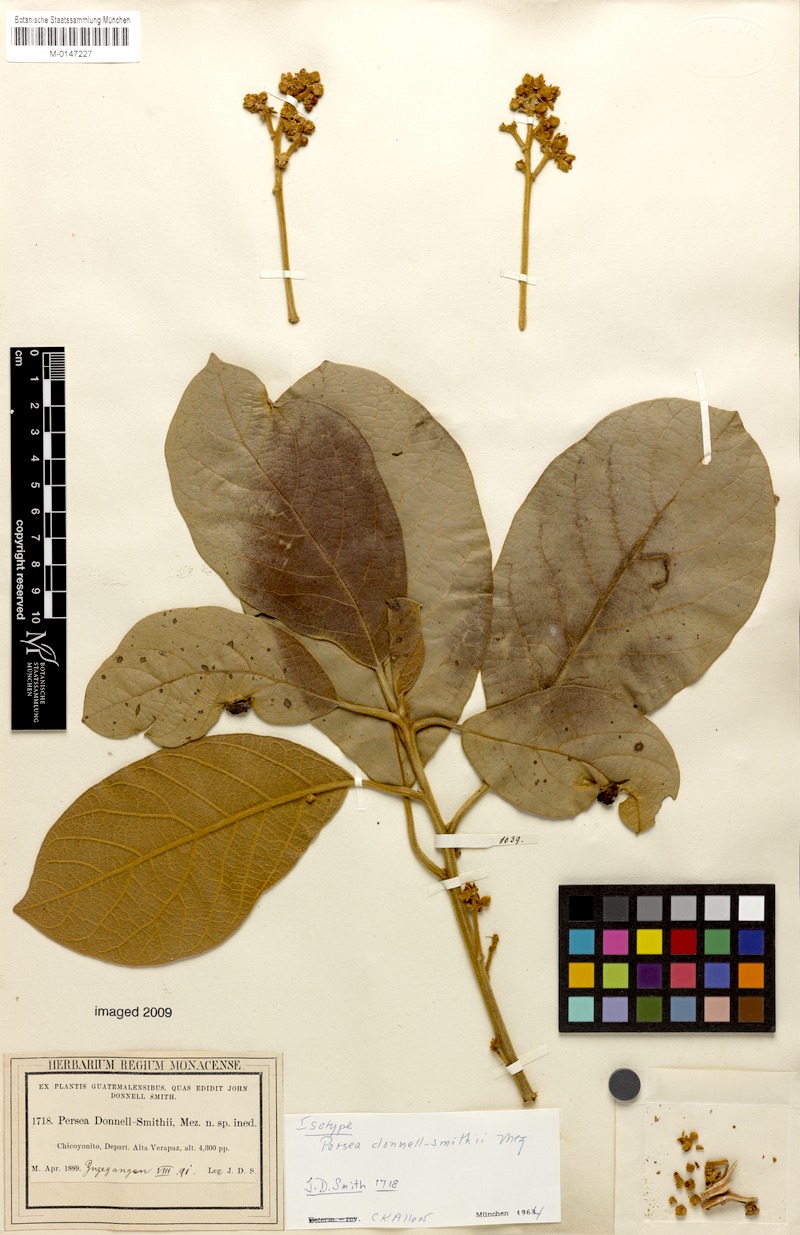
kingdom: Plantae
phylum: Tracheophyta
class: Magnoliopsida
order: Laurales
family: Lauraceae
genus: Persea
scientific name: Persea donnell-smithii
